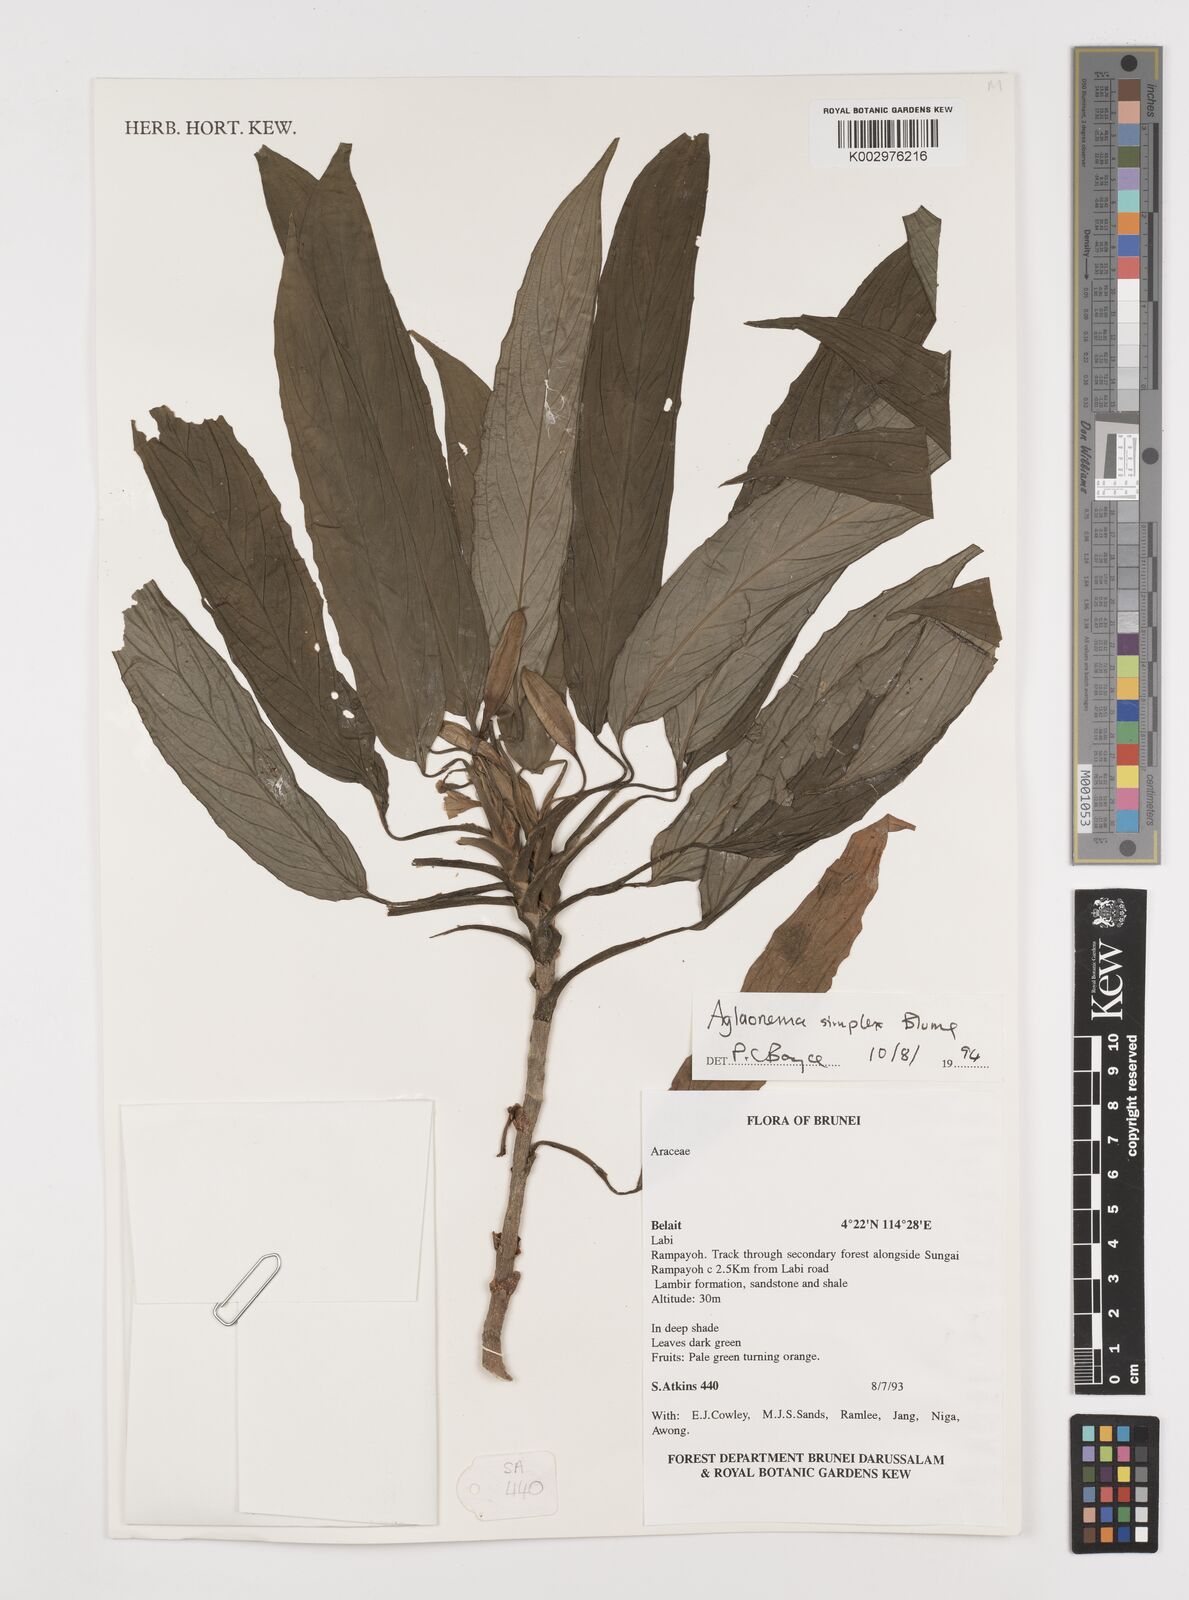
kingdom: Plantae
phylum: Tracheophyta
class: Liliopsida
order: Alismatales
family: Araceae
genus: Aglaonema
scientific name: Aglaonema simplex
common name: Malayan-sword
